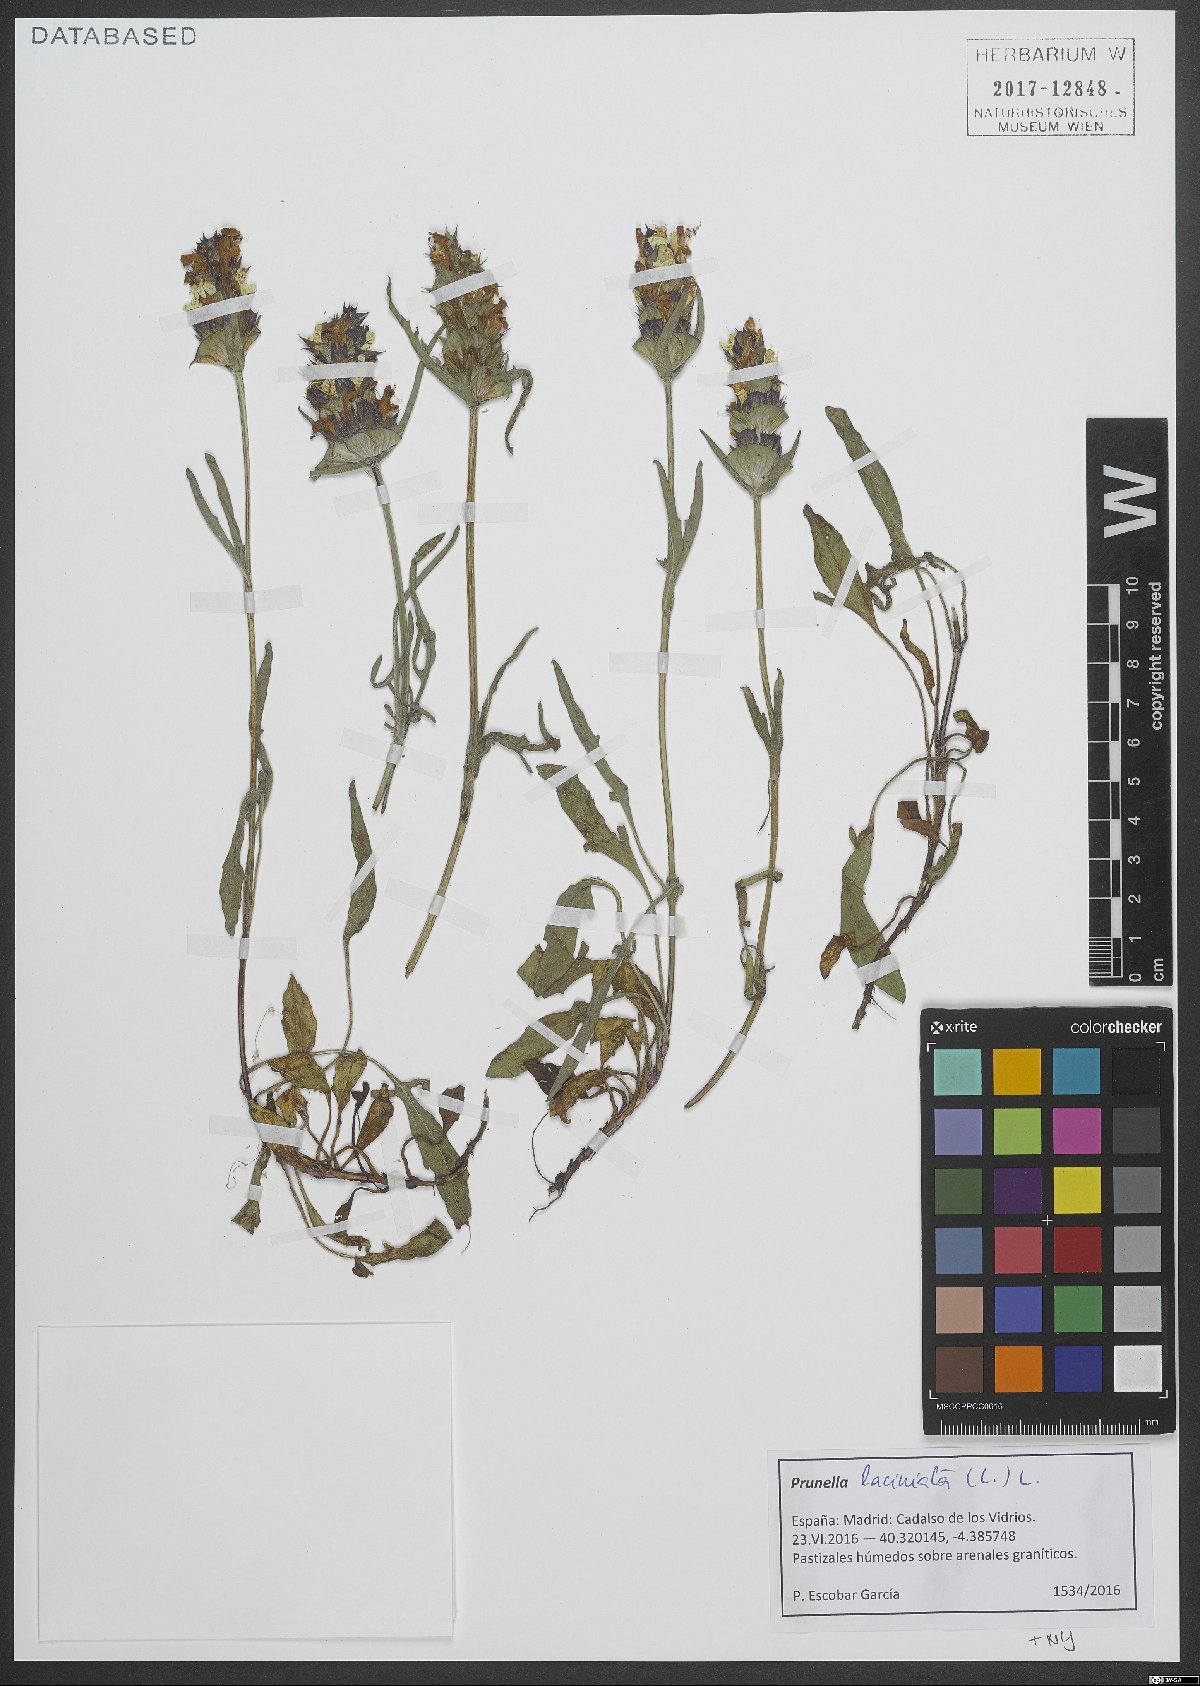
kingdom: Plantae
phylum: Tracheophyta
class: Magnoliopsida
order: Lamiales
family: Lamiaceae
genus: Prunella
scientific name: Prunella laciniata
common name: Cut-leaved selfheal
